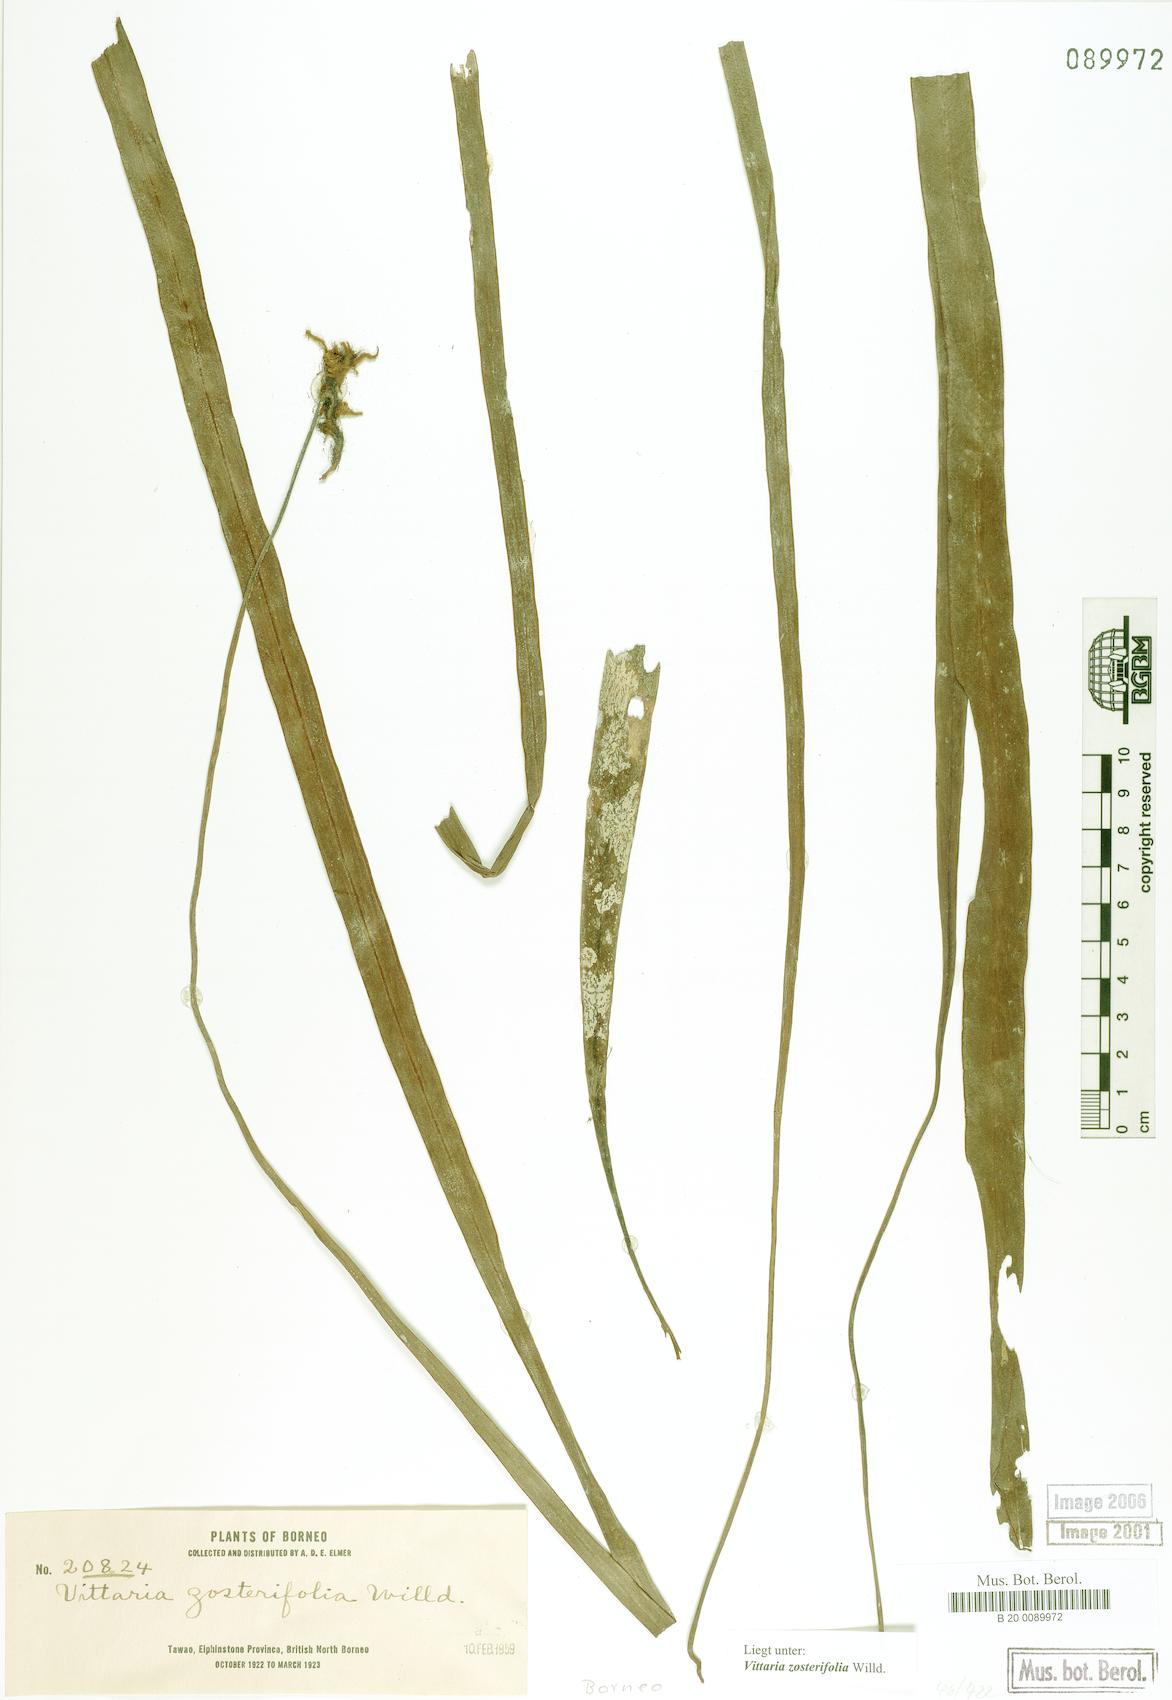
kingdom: Plantae
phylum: Tracheophyta
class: Polypodiopsida
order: Polypodiales
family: Pteridaceae
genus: Haplopteris
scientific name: Haplopteris zosterifolia
